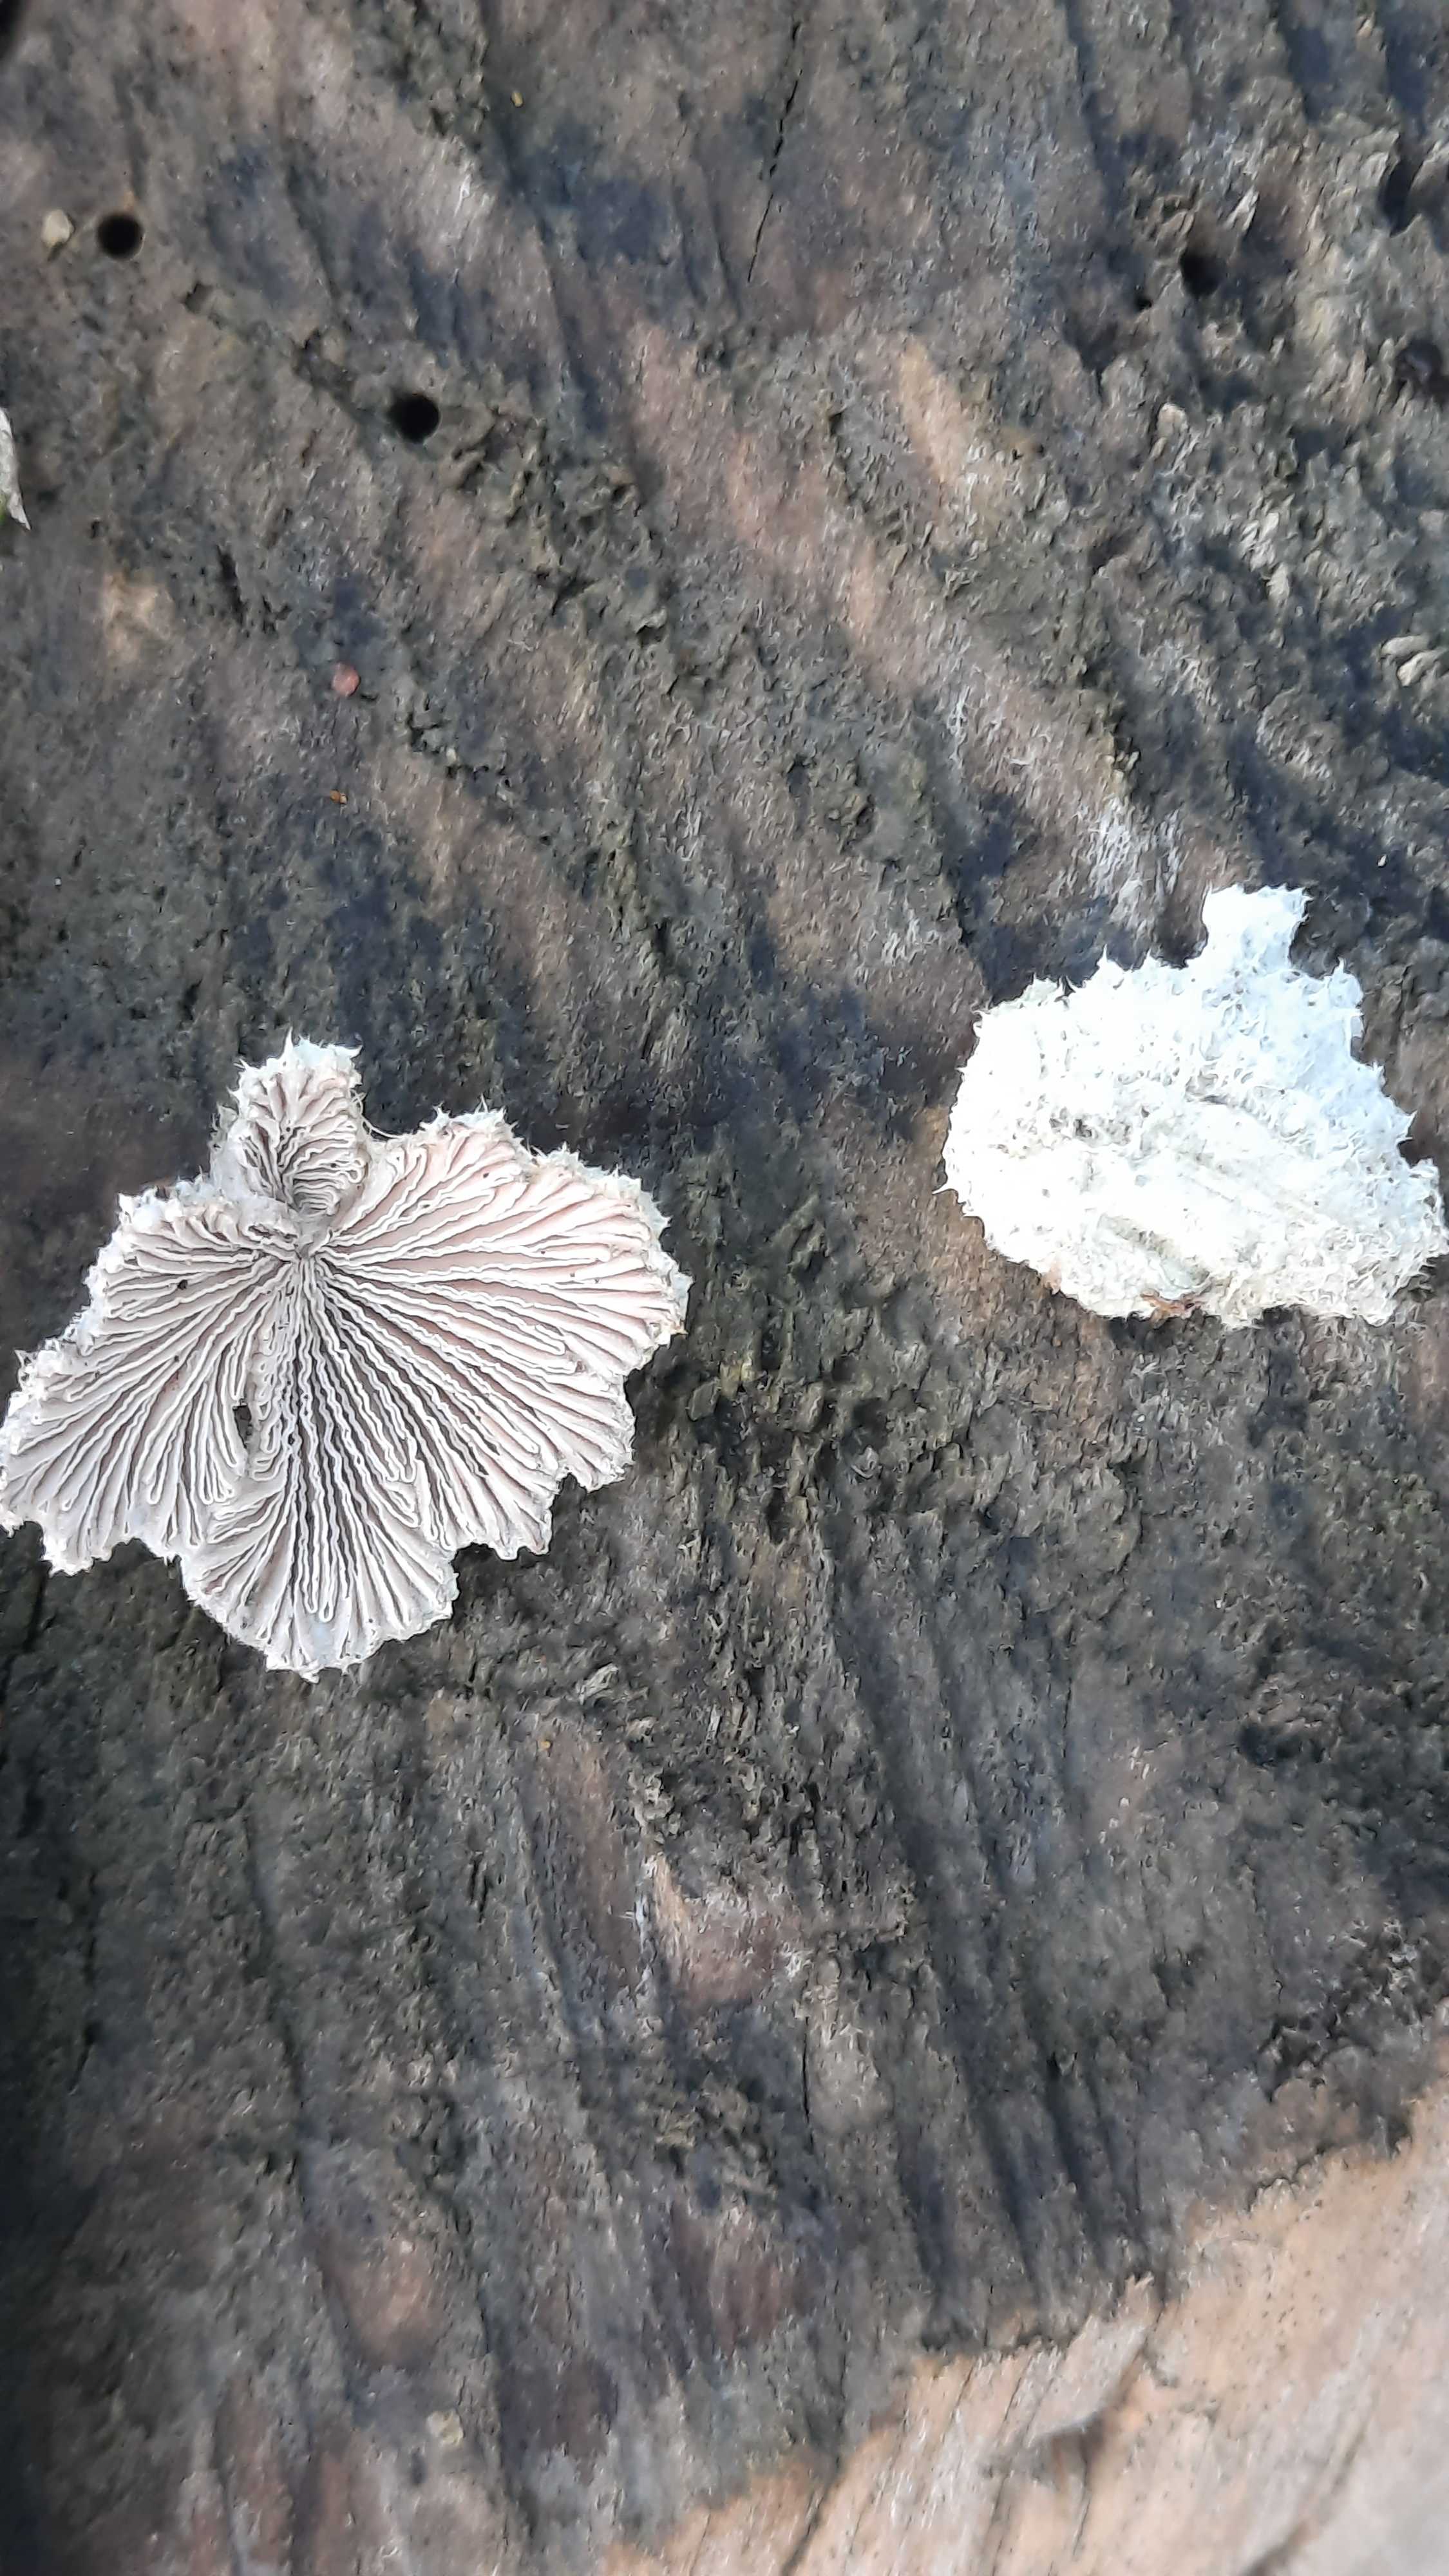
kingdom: Fungi
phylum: Basidiomycota
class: Agaricomycetes
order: Agaricales
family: Schizophyllaceae
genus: Schizophyllum
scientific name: Schizophyllum commune
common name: kløvblad
